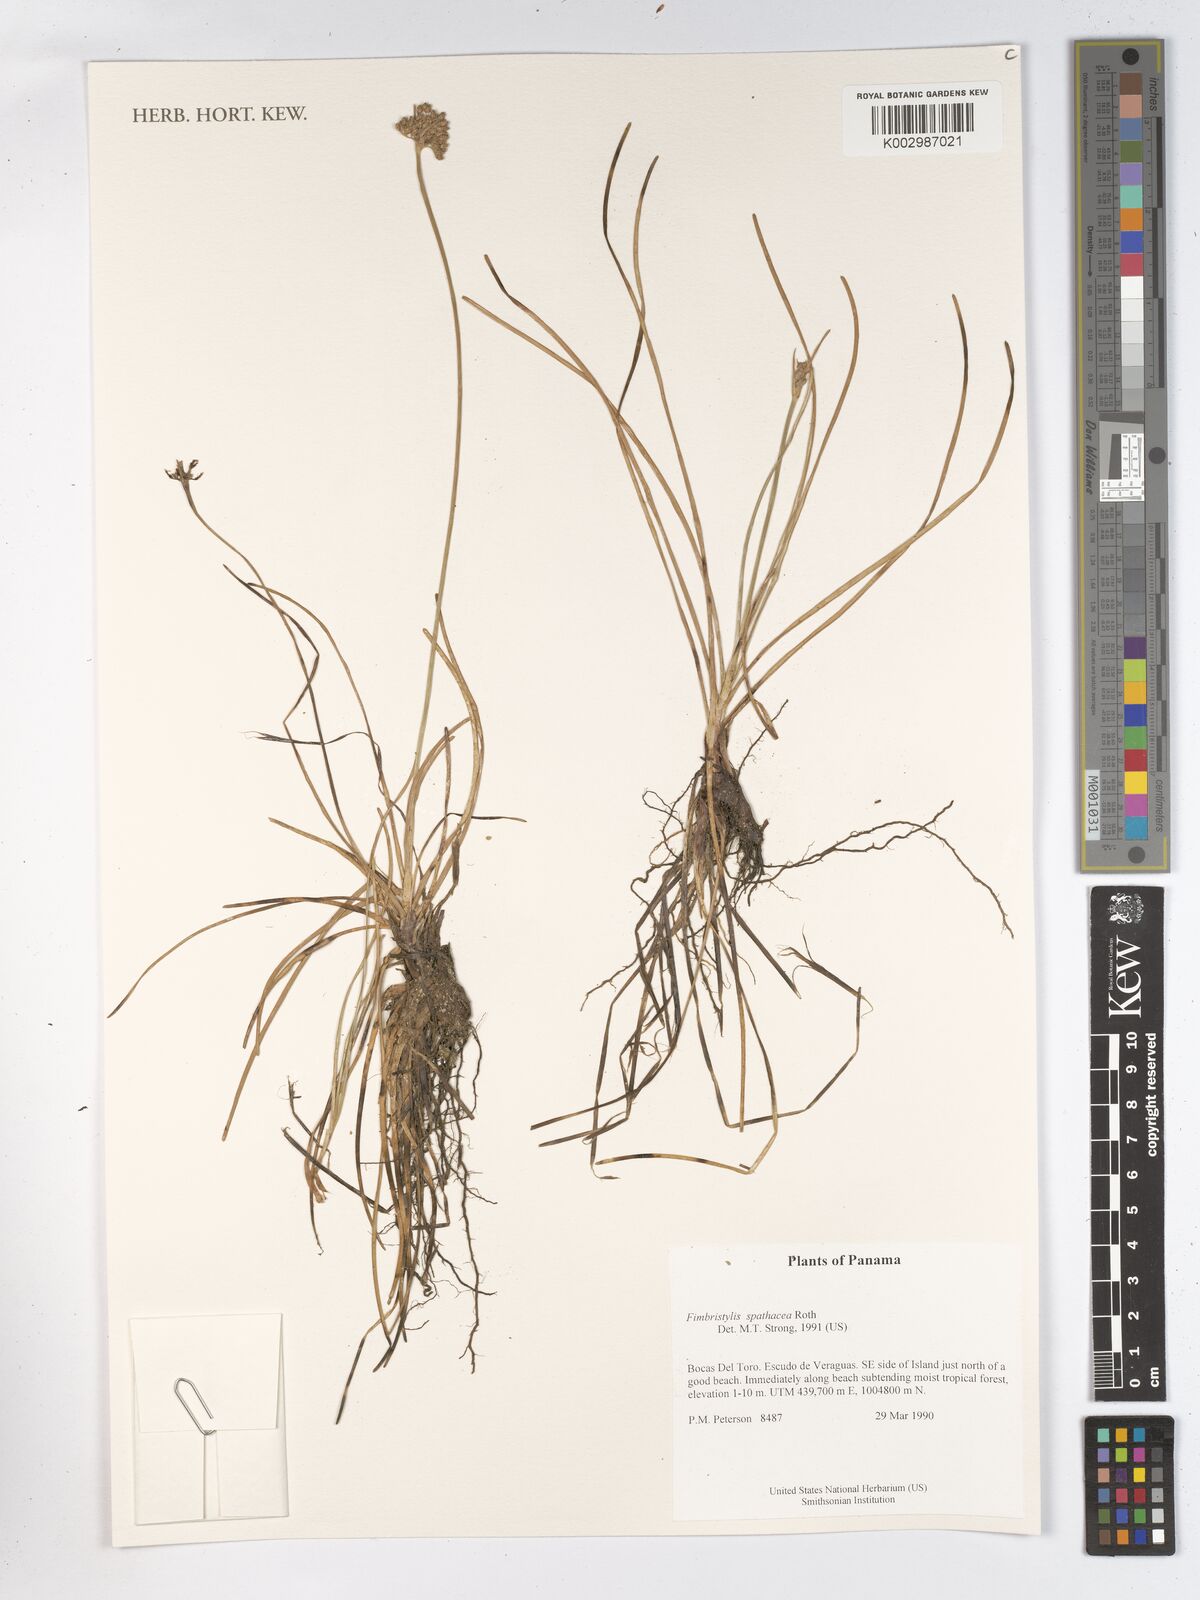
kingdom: Plantae
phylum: Tracheophyta
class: Liliopsida
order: Poales
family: Cyperaceae
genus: Fimbristylis
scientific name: Fimbristylis cymosa
